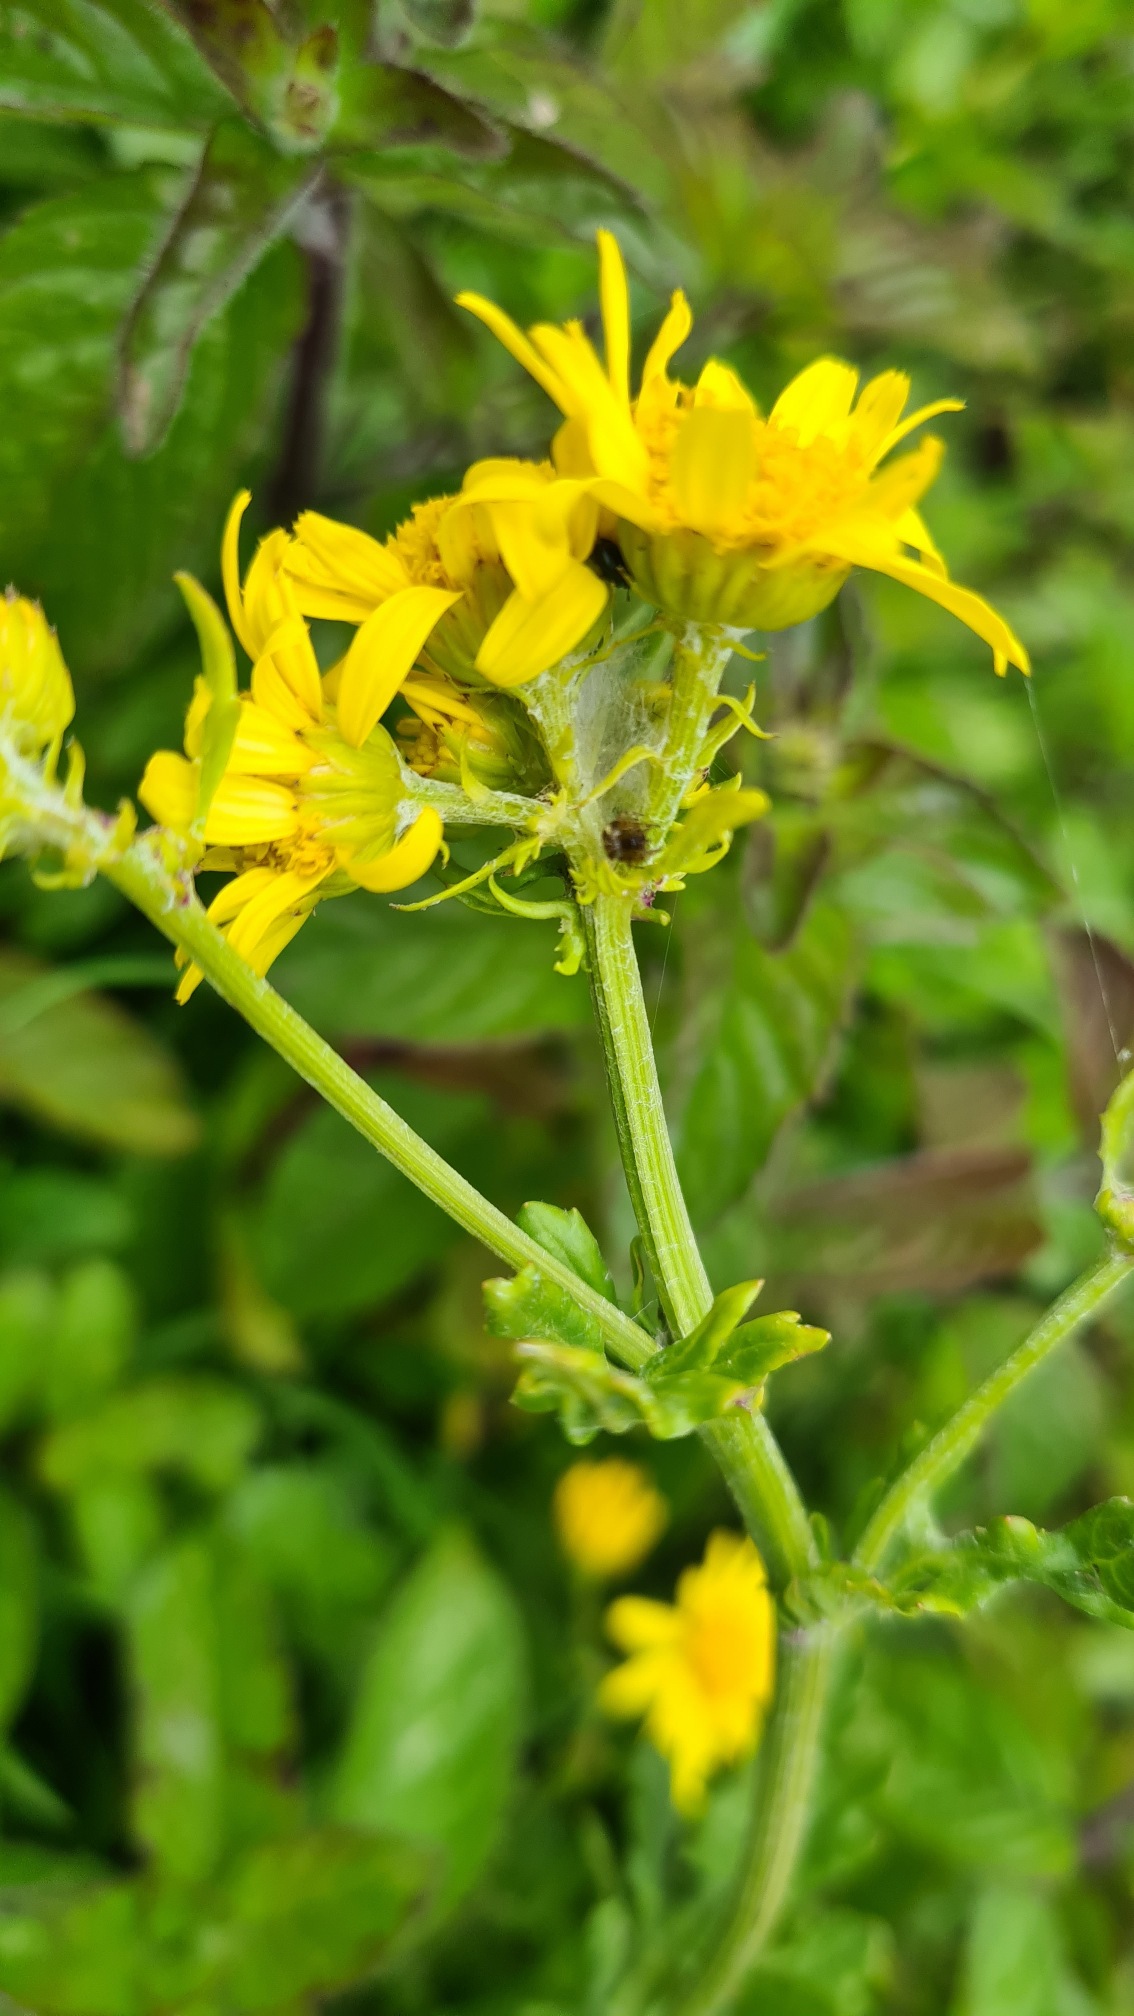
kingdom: Plantae
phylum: Tracheophyta
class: Magnoliopsida
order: Asterales
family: Asteraceae
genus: Jacobaea
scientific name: Jacobaea aquatica
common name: Vand-brandbæger
